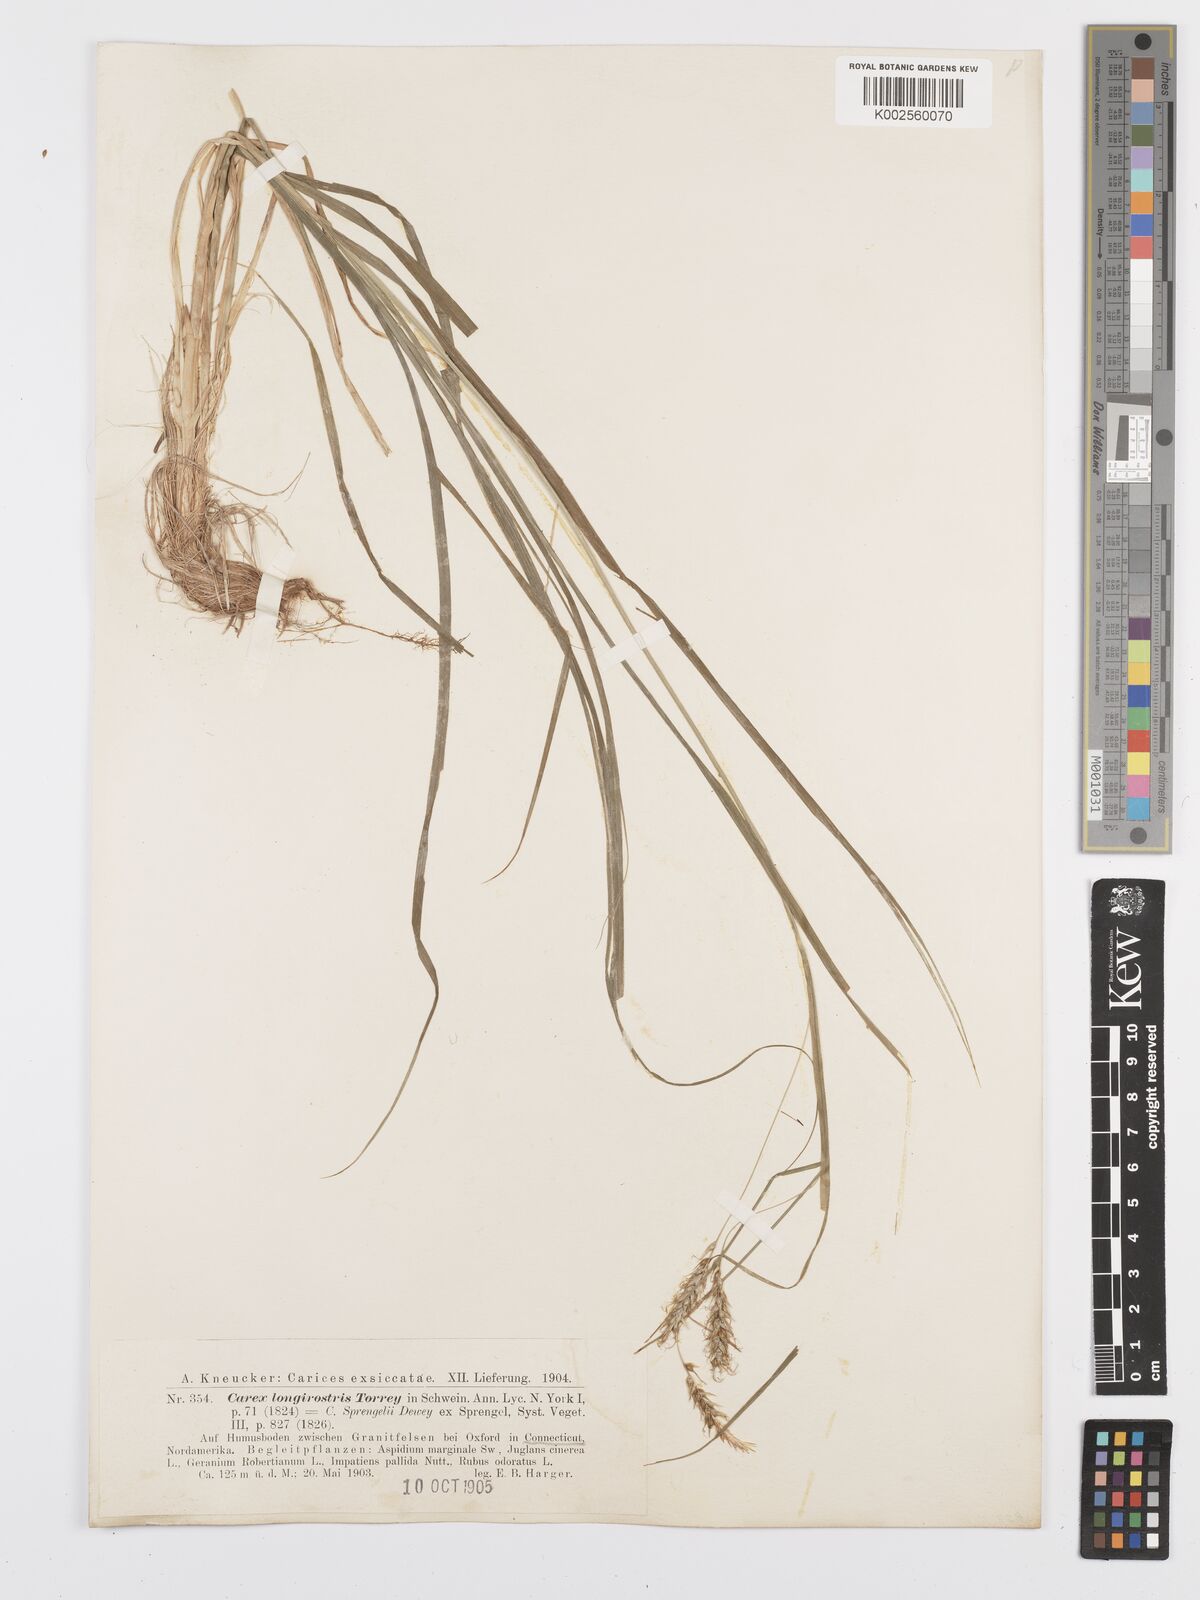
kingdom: Plantae
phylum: Tracheophyta
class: Liliopsida
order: Poales
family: Cyperaceae
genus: Carex
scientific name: Carex sprengelii
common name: Long-beaked sedge
